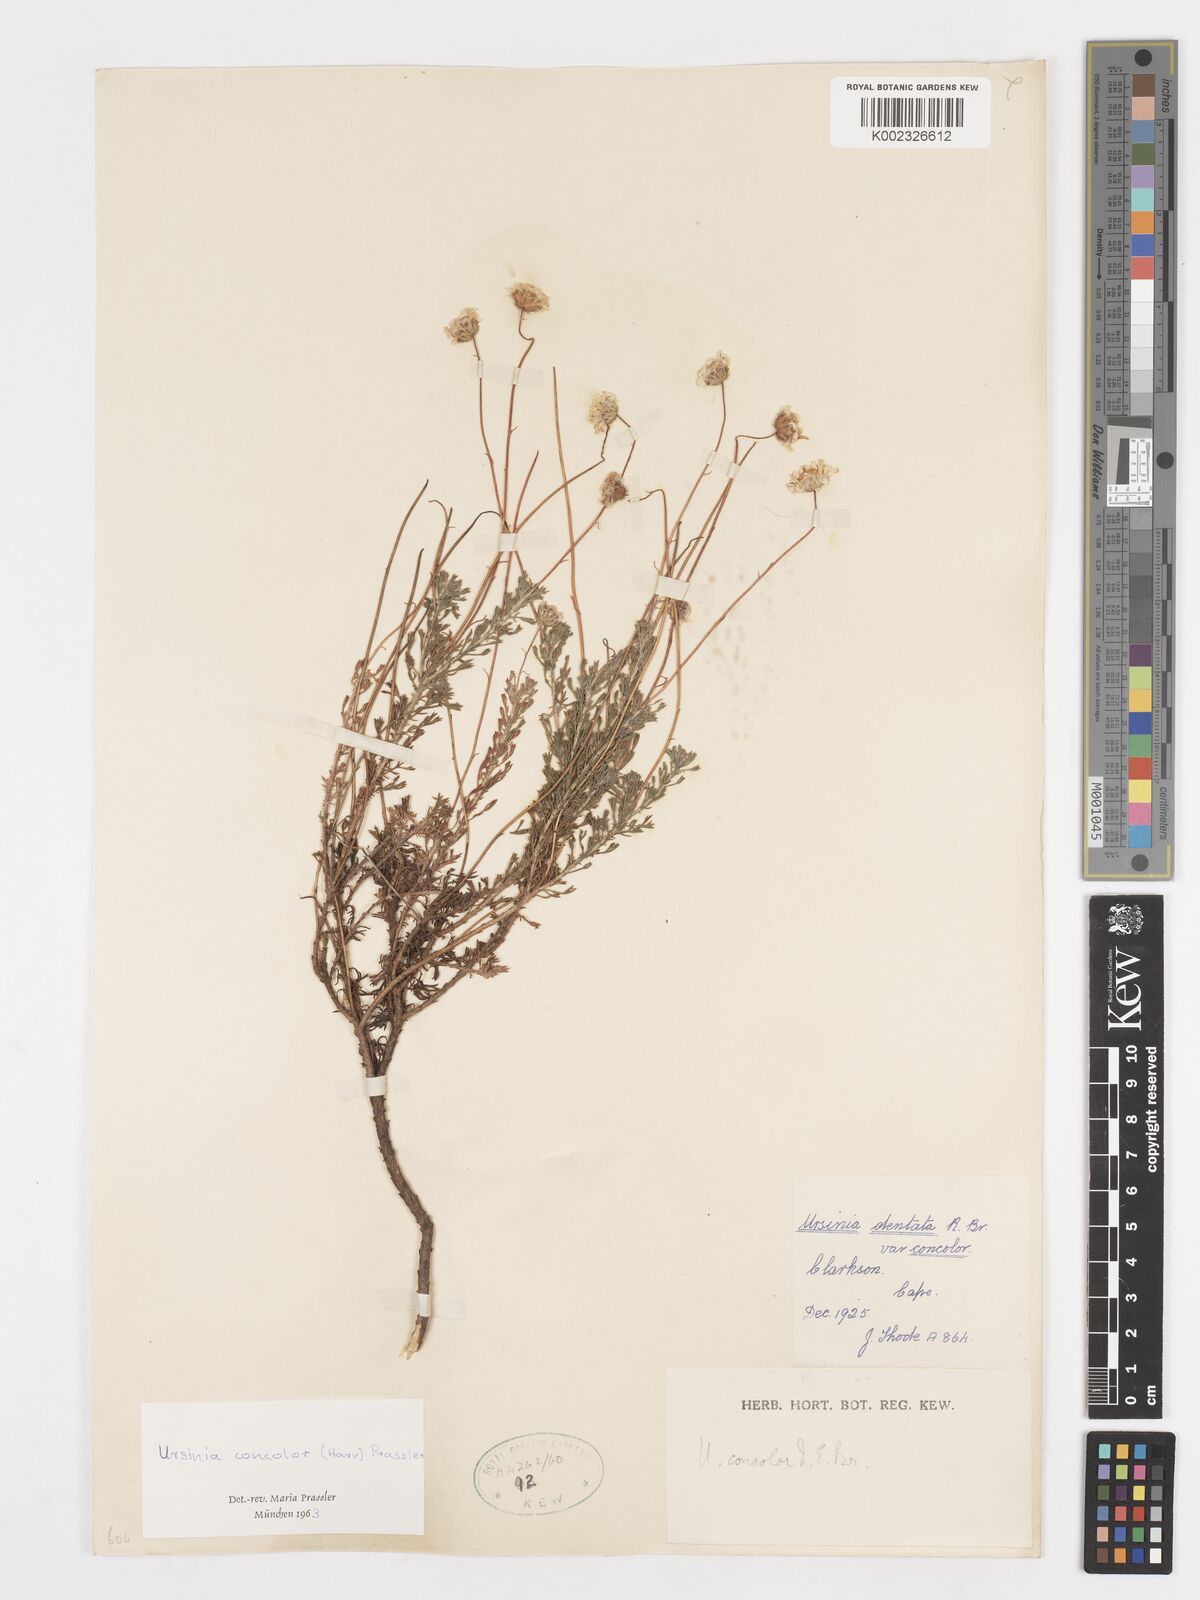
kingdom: Plantae
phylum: Tracheophyta
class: Magnoliopsida
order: Asterales
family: Asteraceae
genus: Ursinia
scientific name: Ursinia punctata
